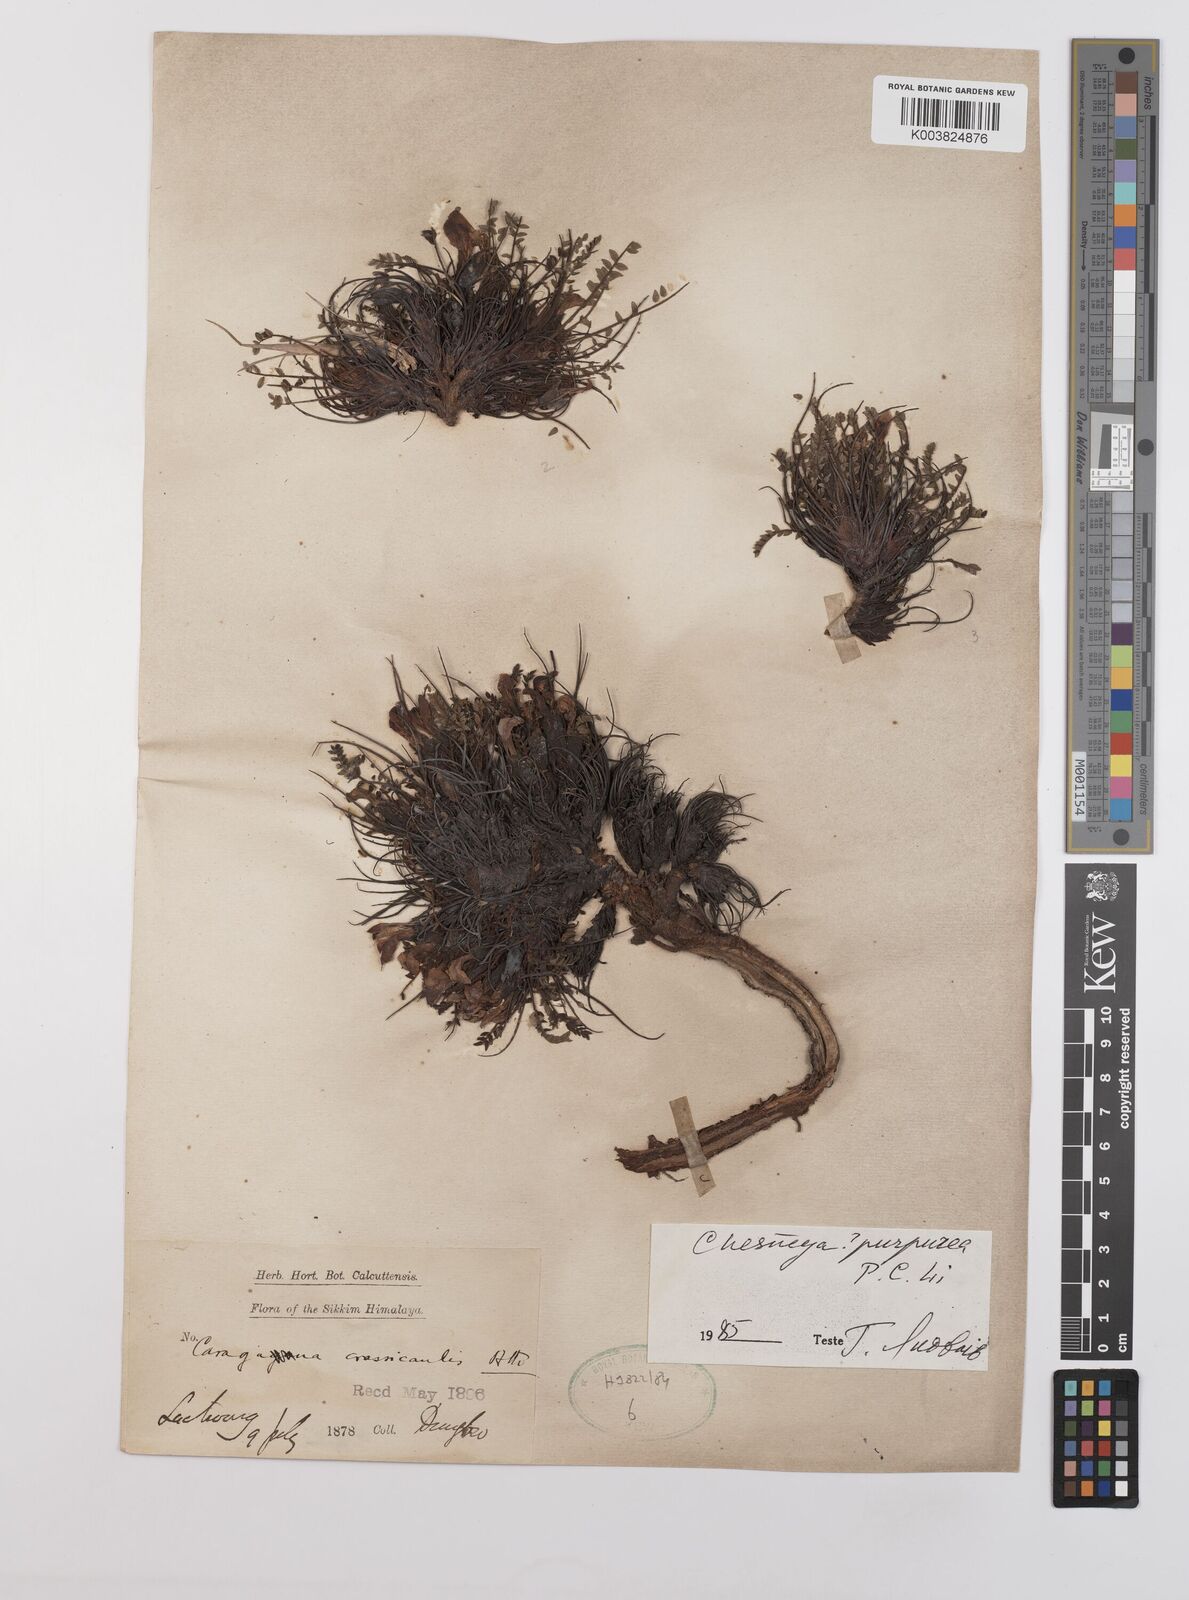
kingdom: Plantae
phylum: Tracheophyta
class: Magnoliopsida
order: Fabales
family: Fabaceae
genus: Chesneya
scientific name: Chesneya purpurea
